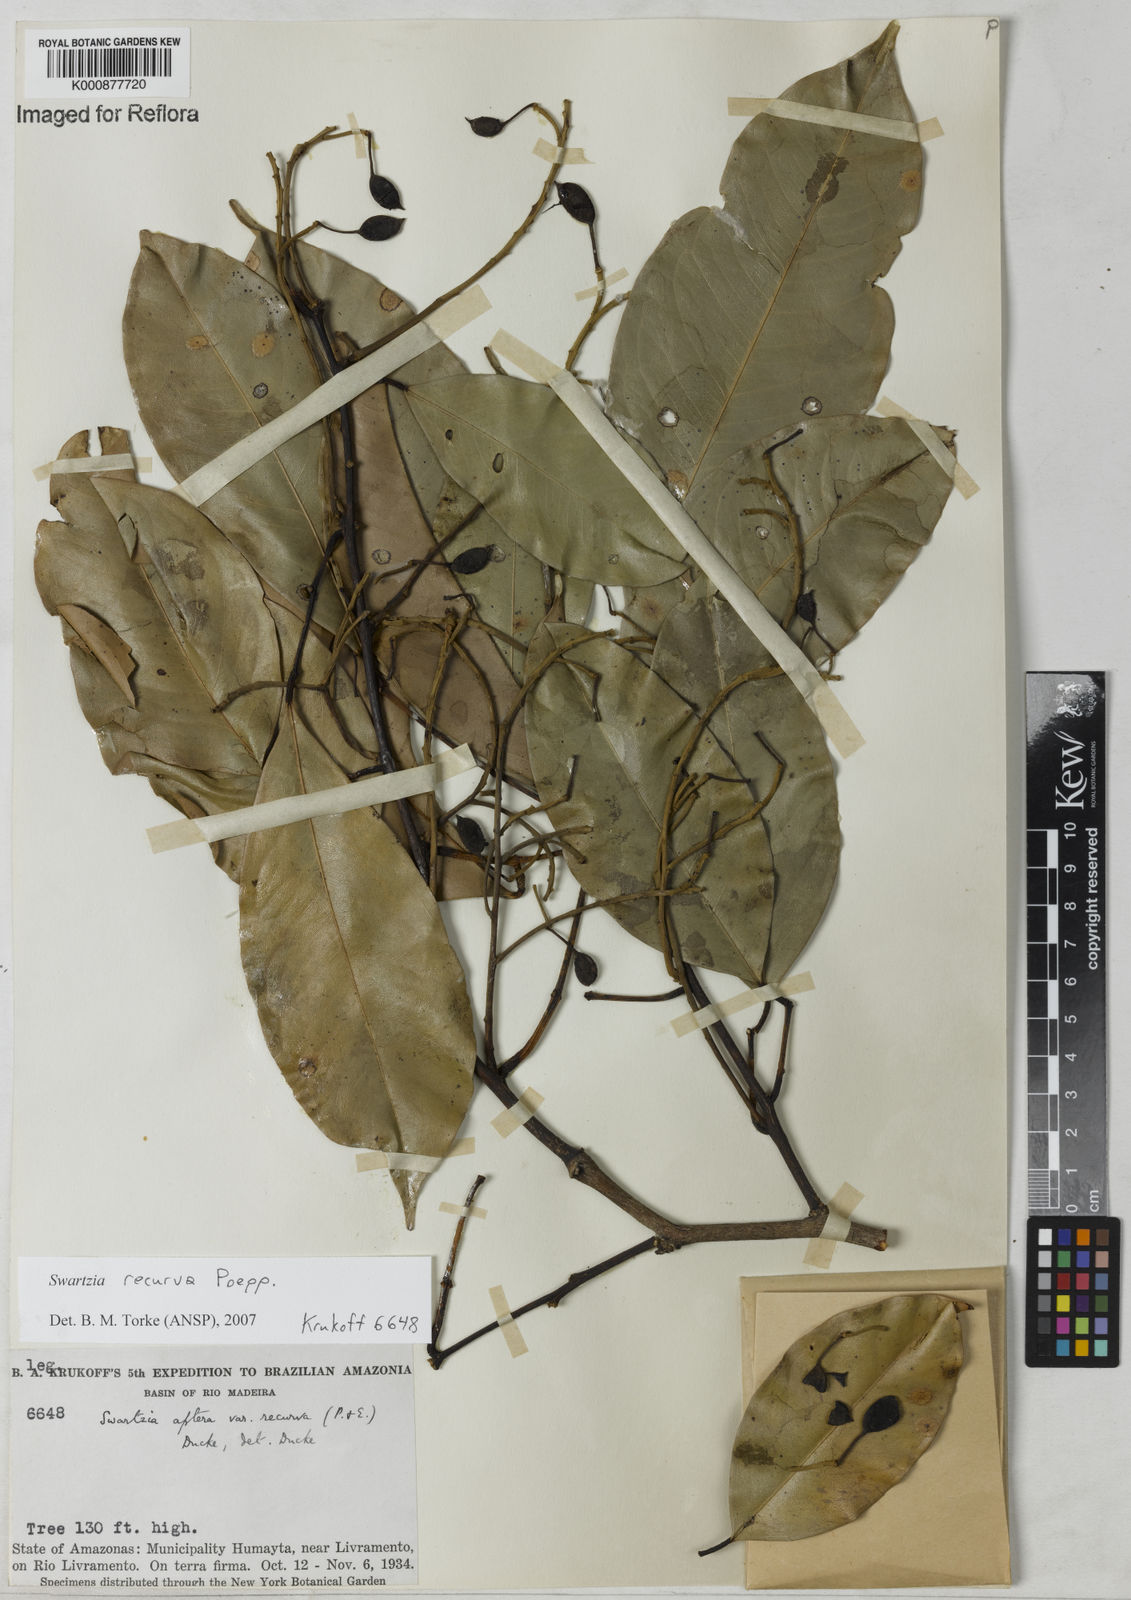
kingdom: Plantae
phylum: Tracheophyta
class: Magnoliopsida
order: Fabales
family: Fabaceae
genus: Swartzia
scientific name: Swartzia recurva
